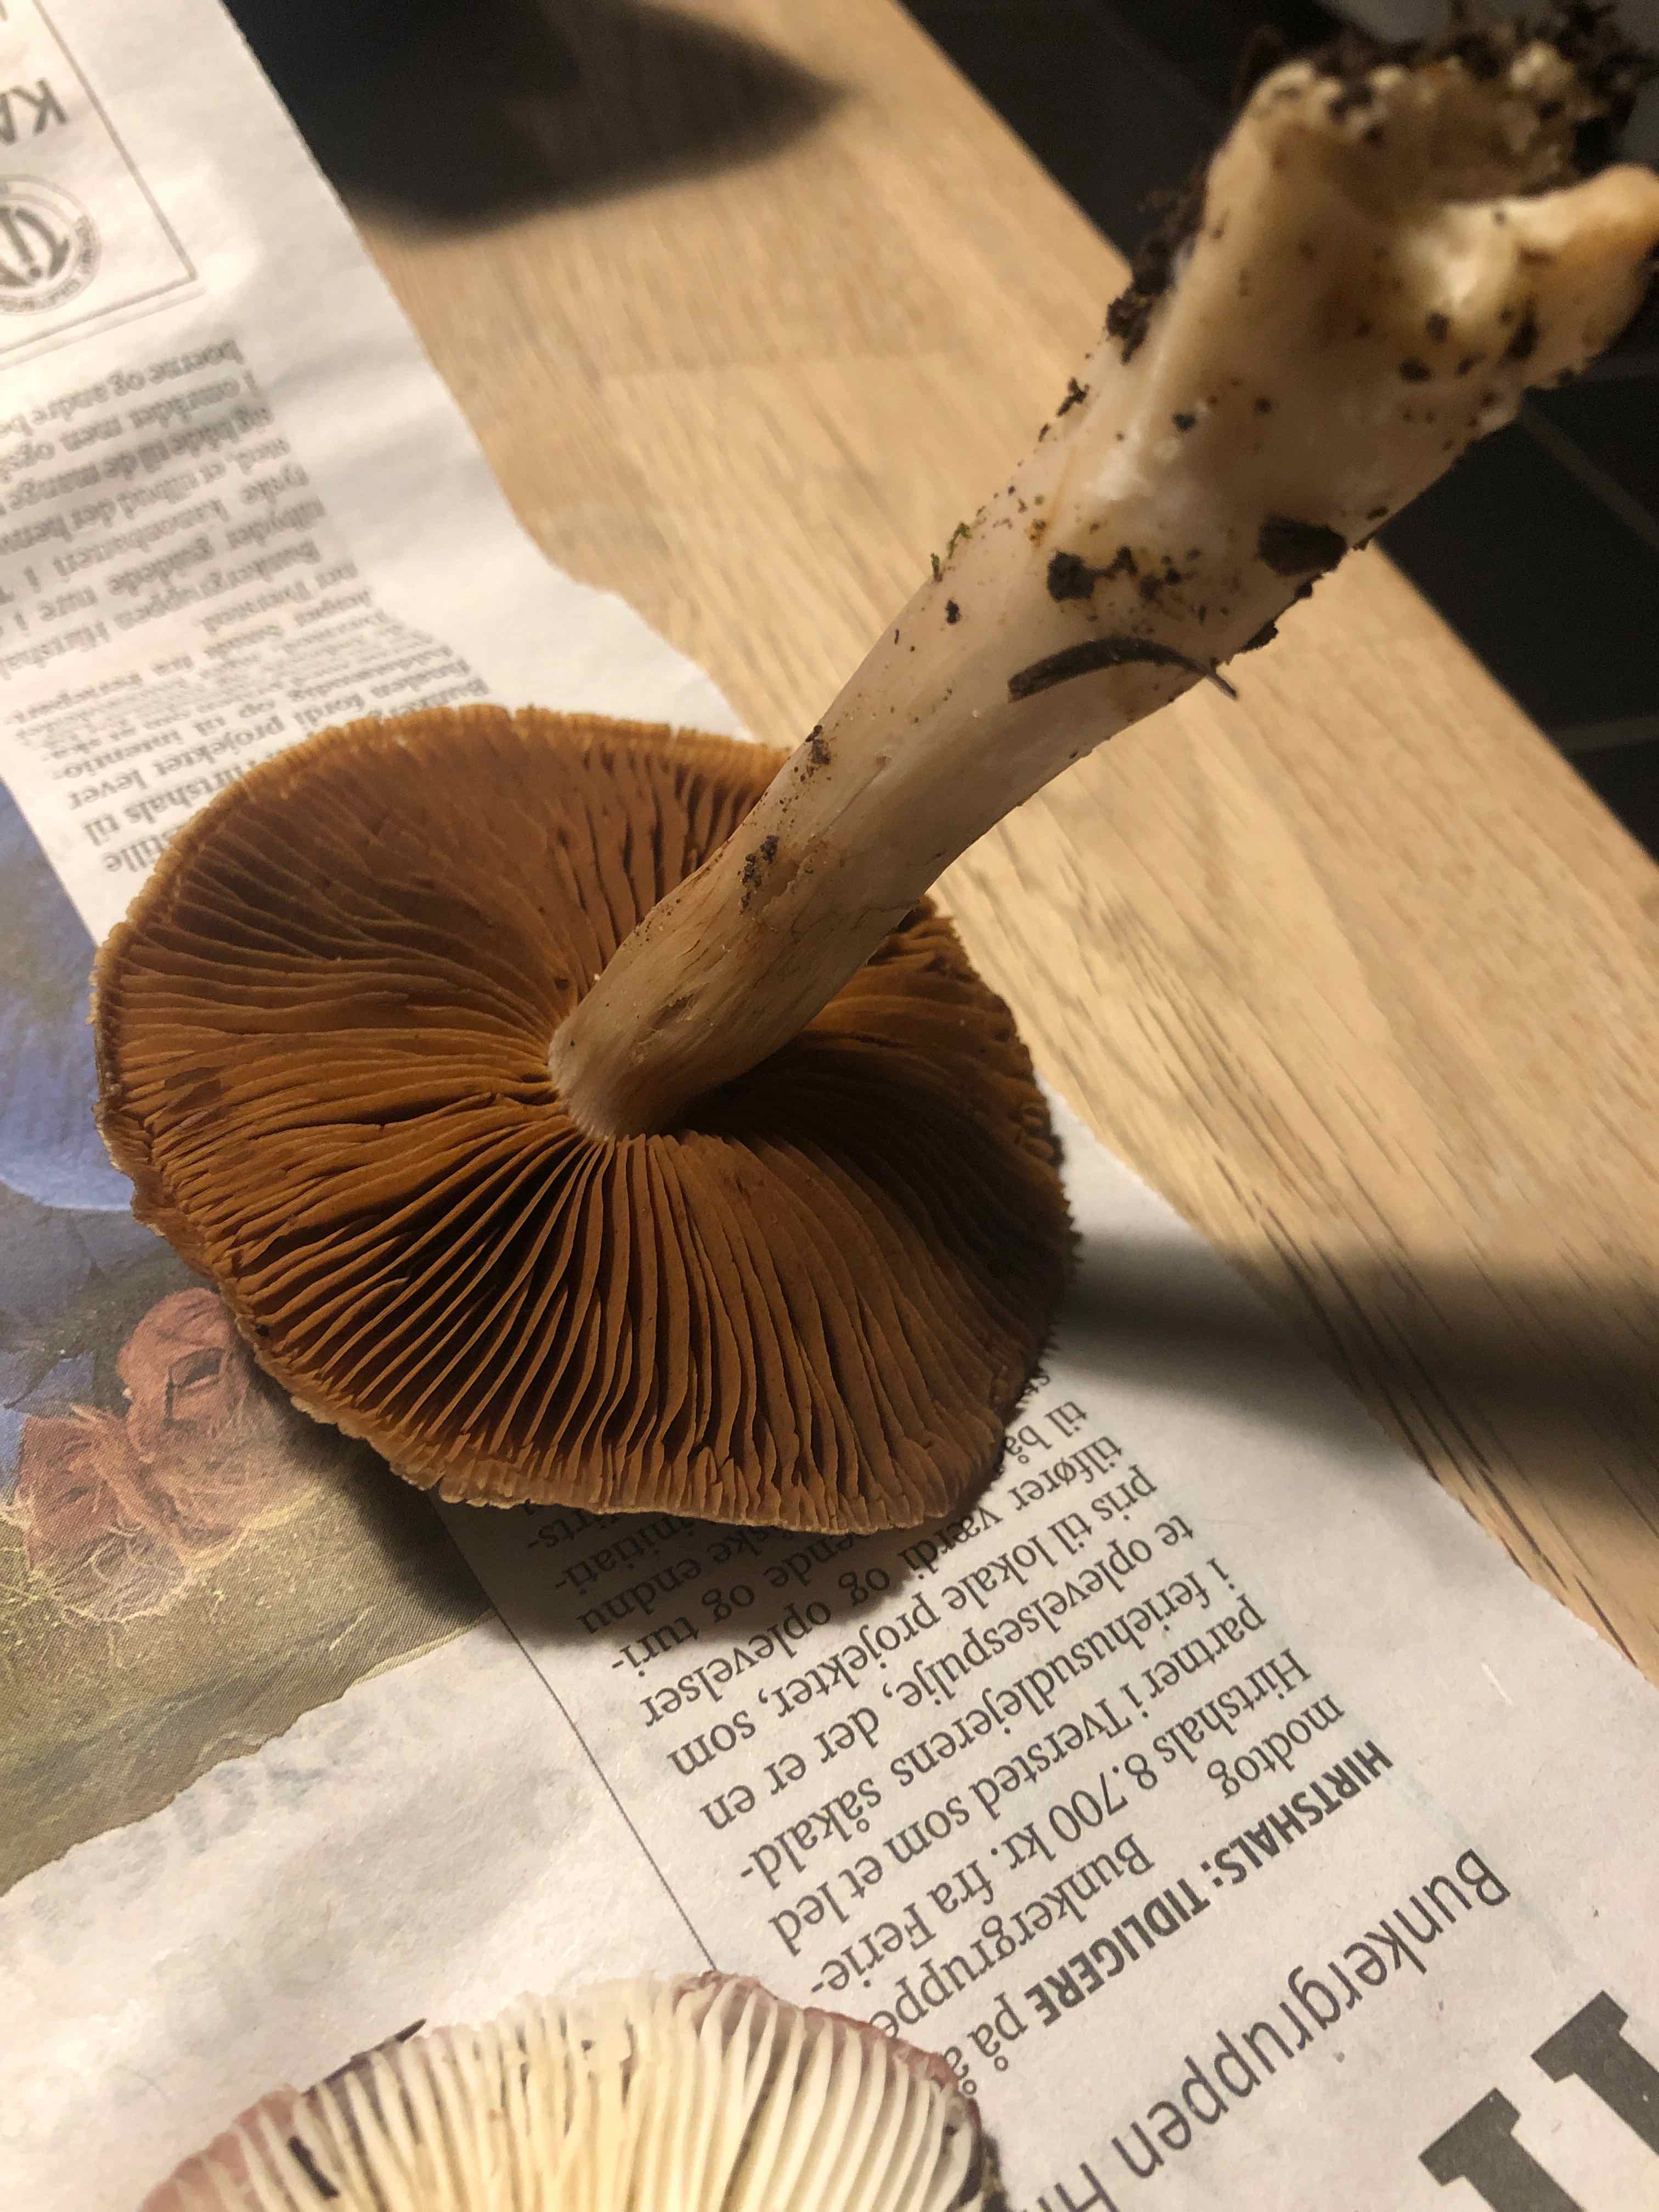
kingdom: Fungi
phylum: Basidiomycota
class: Agaricomycetes
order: Agaricales
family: Cortinariaceae
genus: Cortinarius
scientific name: Cortinarius
